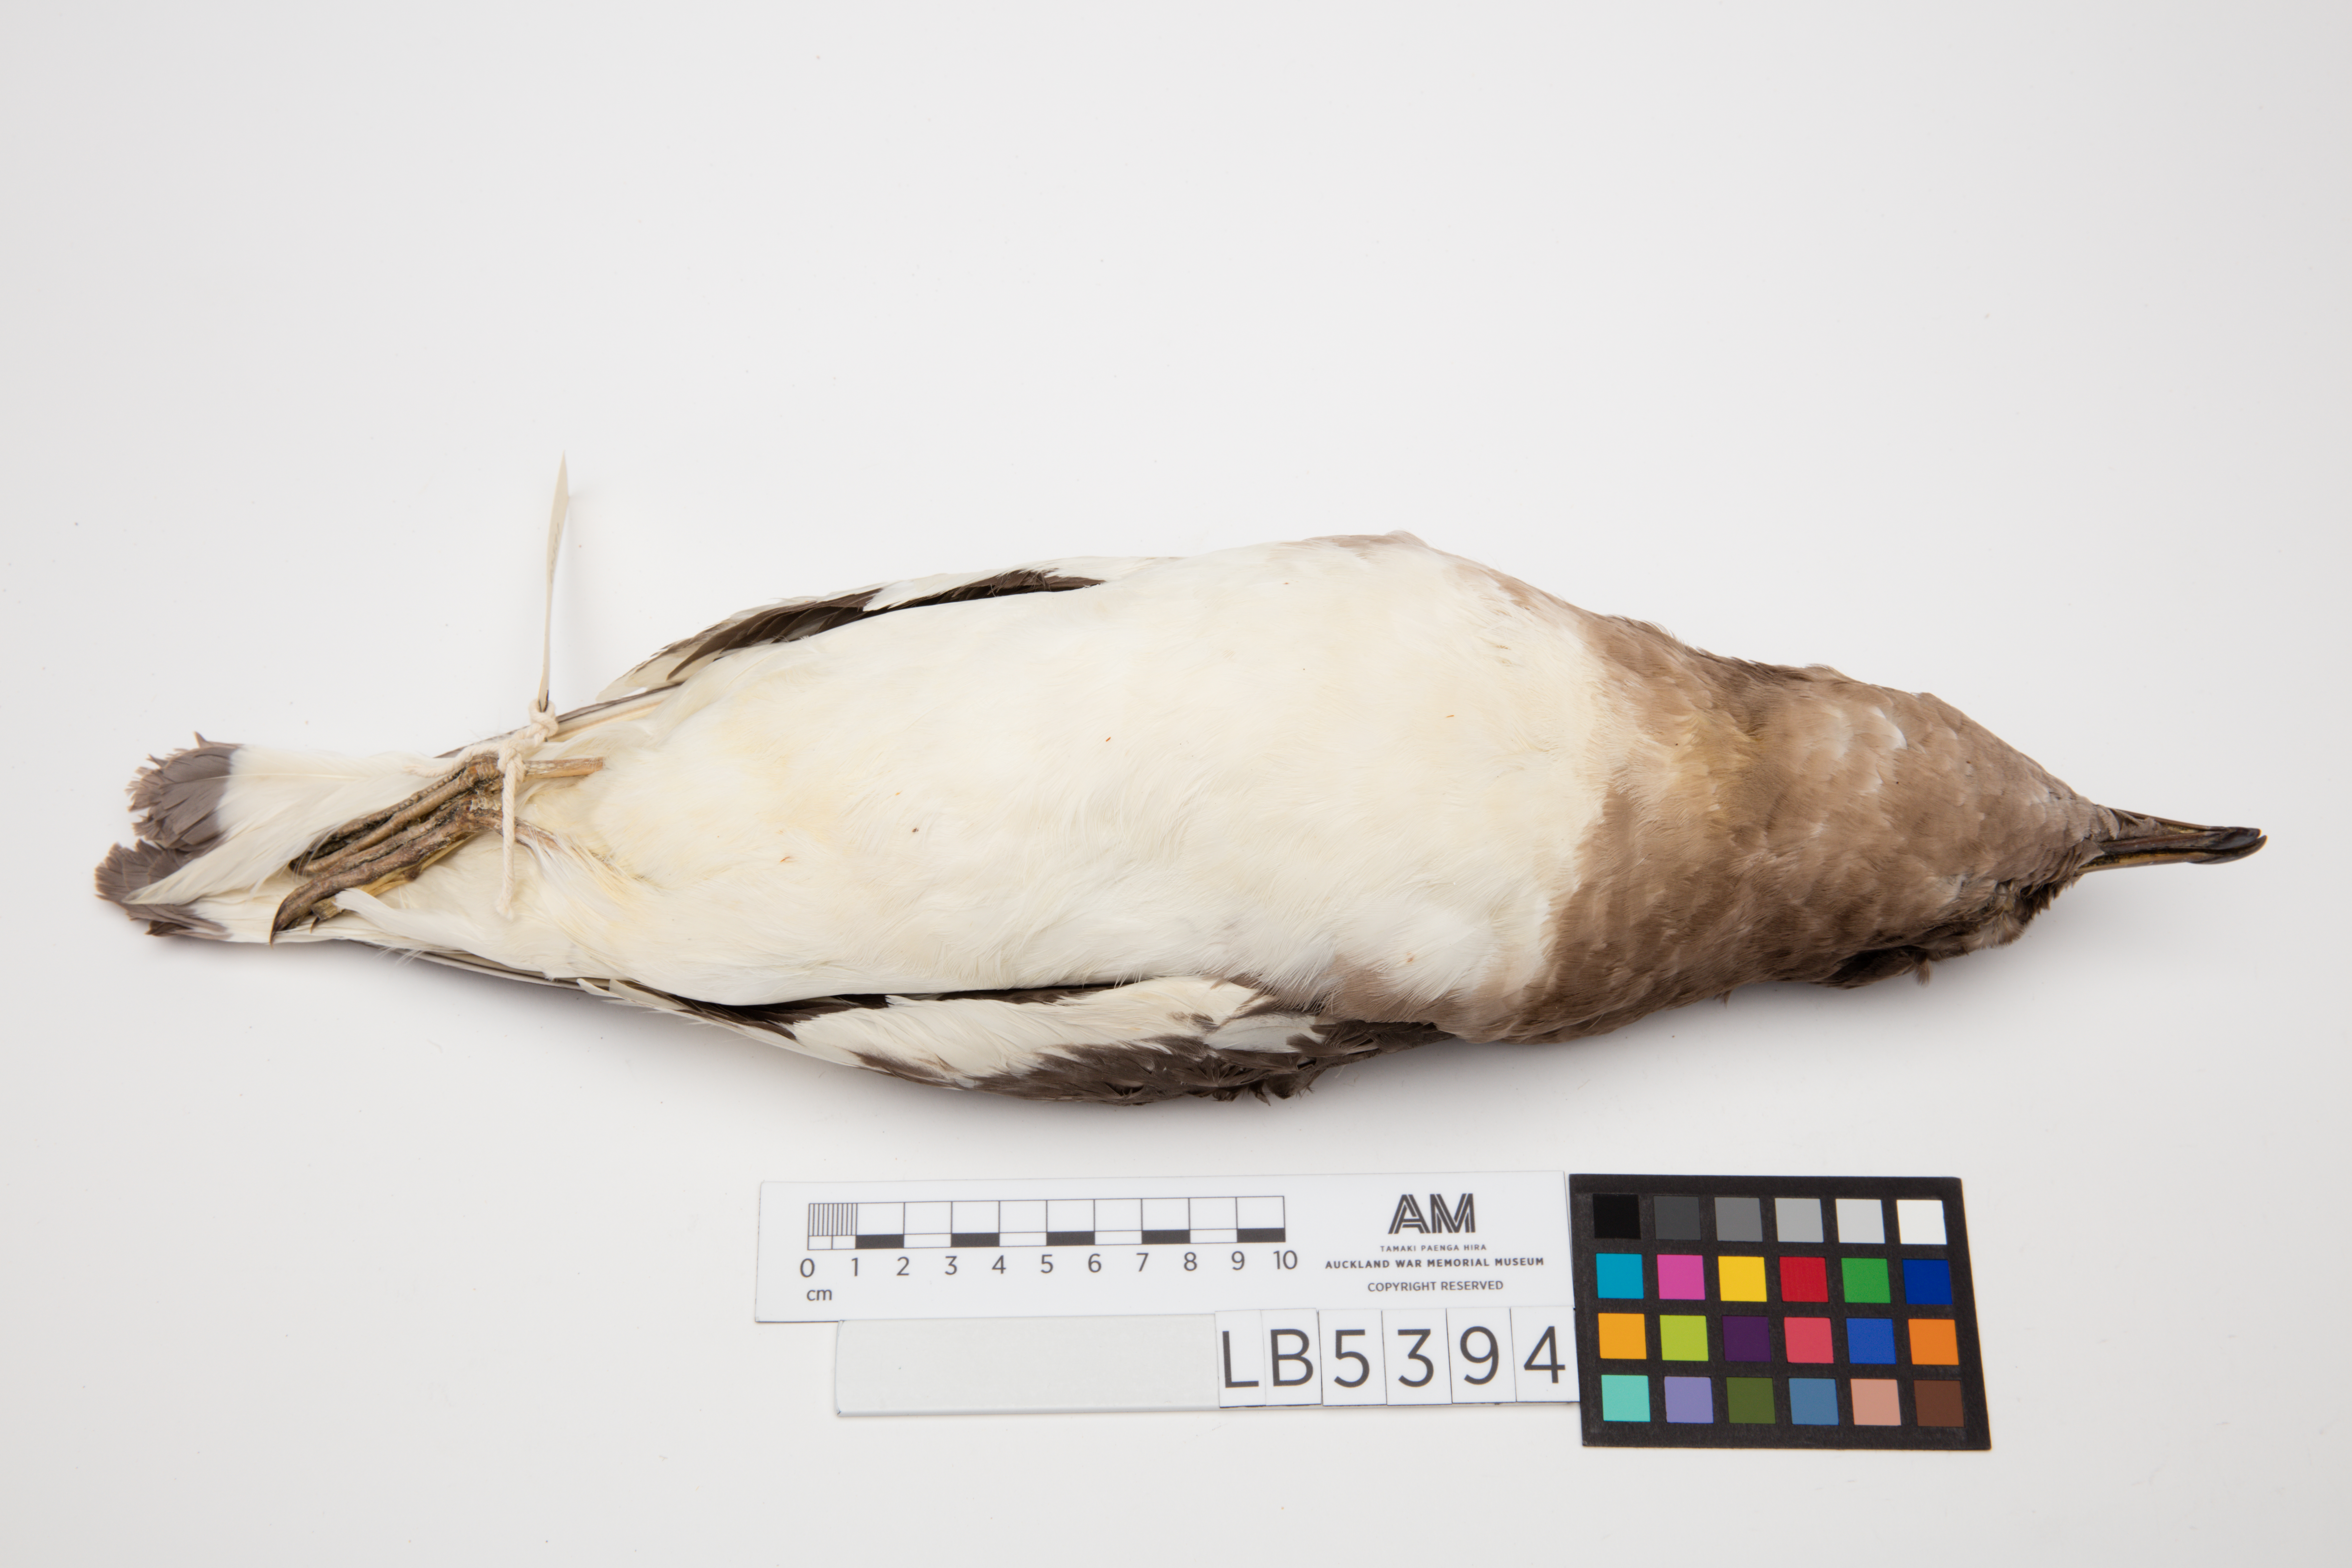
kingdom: Animalia
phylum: Chordata
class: Aves
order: Procellariiformes
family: Procellariidae
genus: Thalassoica
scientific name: Thalassoica antarctica
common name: Antarctic petrel
